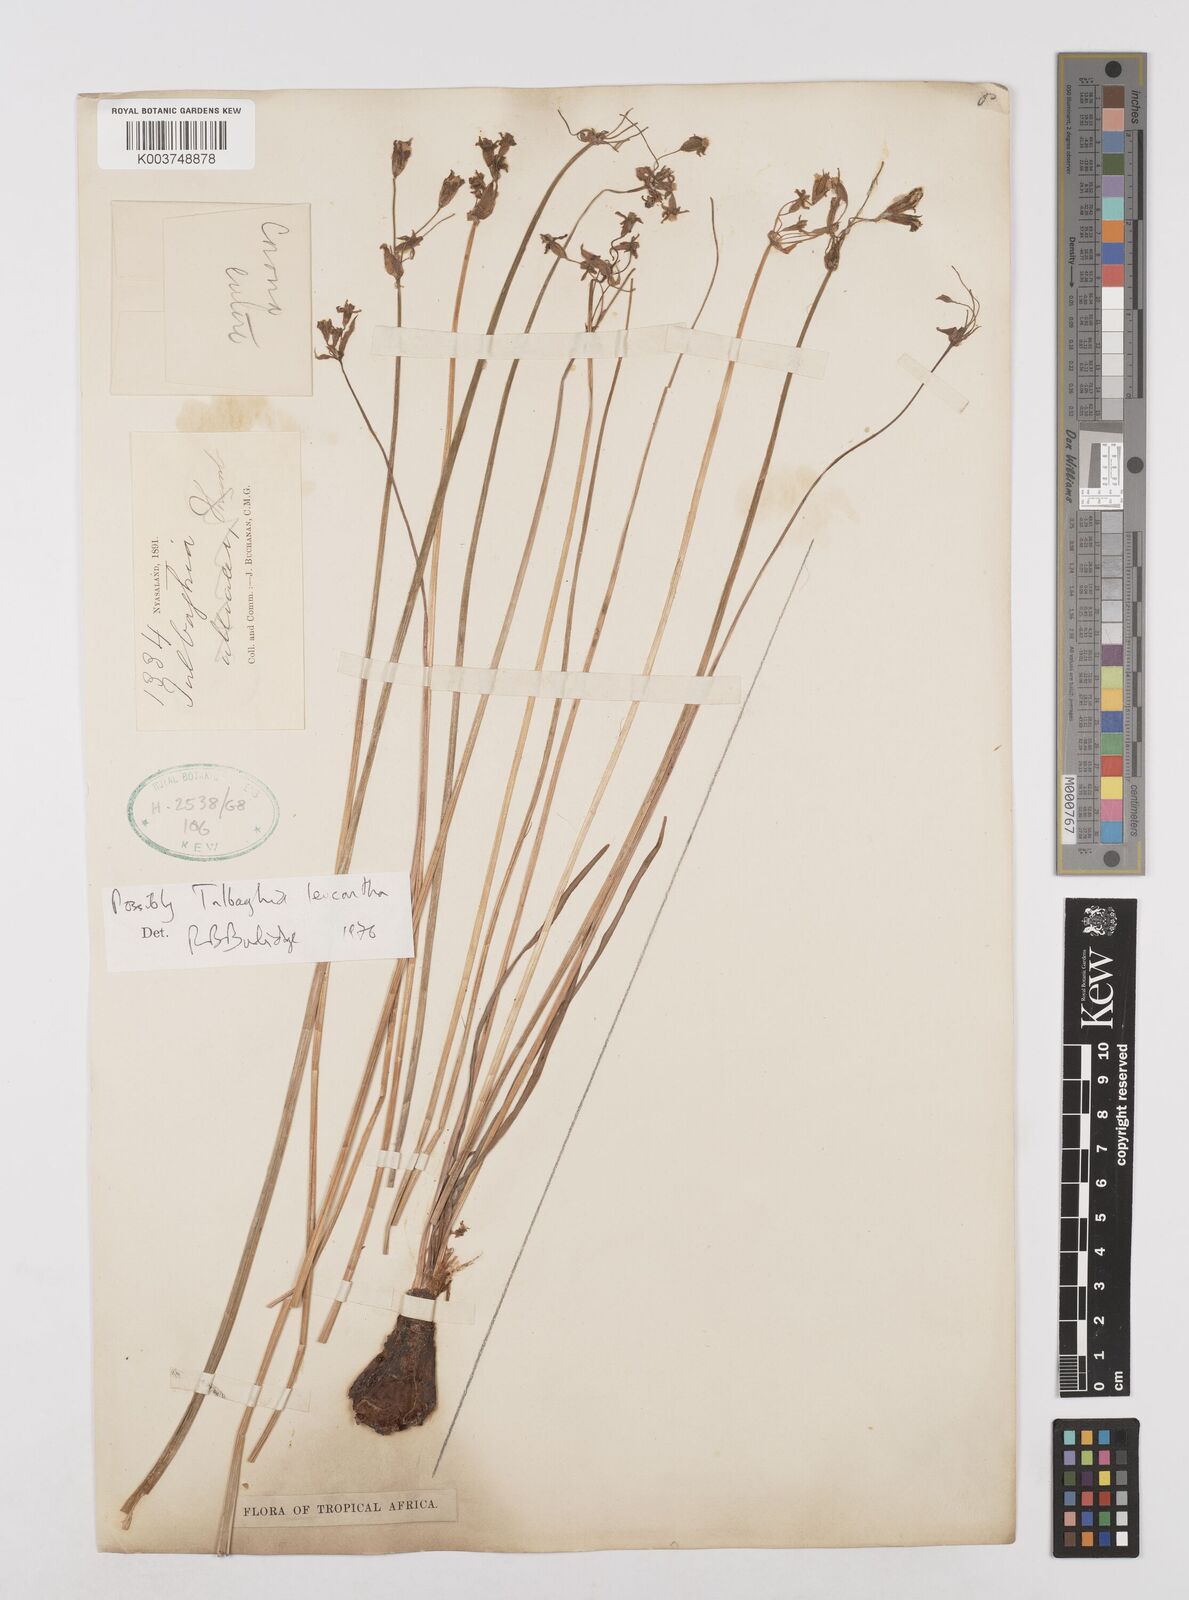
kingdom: Plantae
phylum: Tracheophyta
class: Liliopsida
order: Asparagales
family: Amaryllidaceae
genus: Tulbaghia
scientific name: Tulbaghia leucantha
